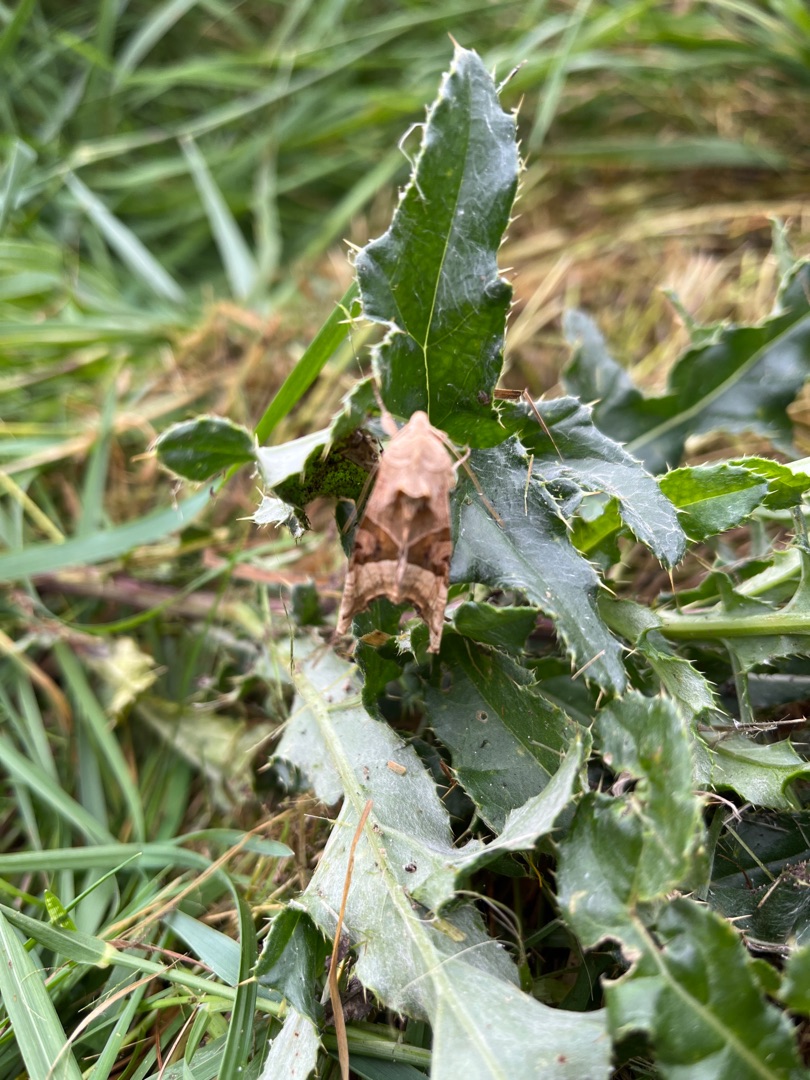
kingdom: Animalia
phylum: Arthropoda
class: Insecta
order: Lepidoptera
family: Noctuidae
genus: Phlogophora
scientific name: Phlogophora meticulosa
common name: Agatugle
